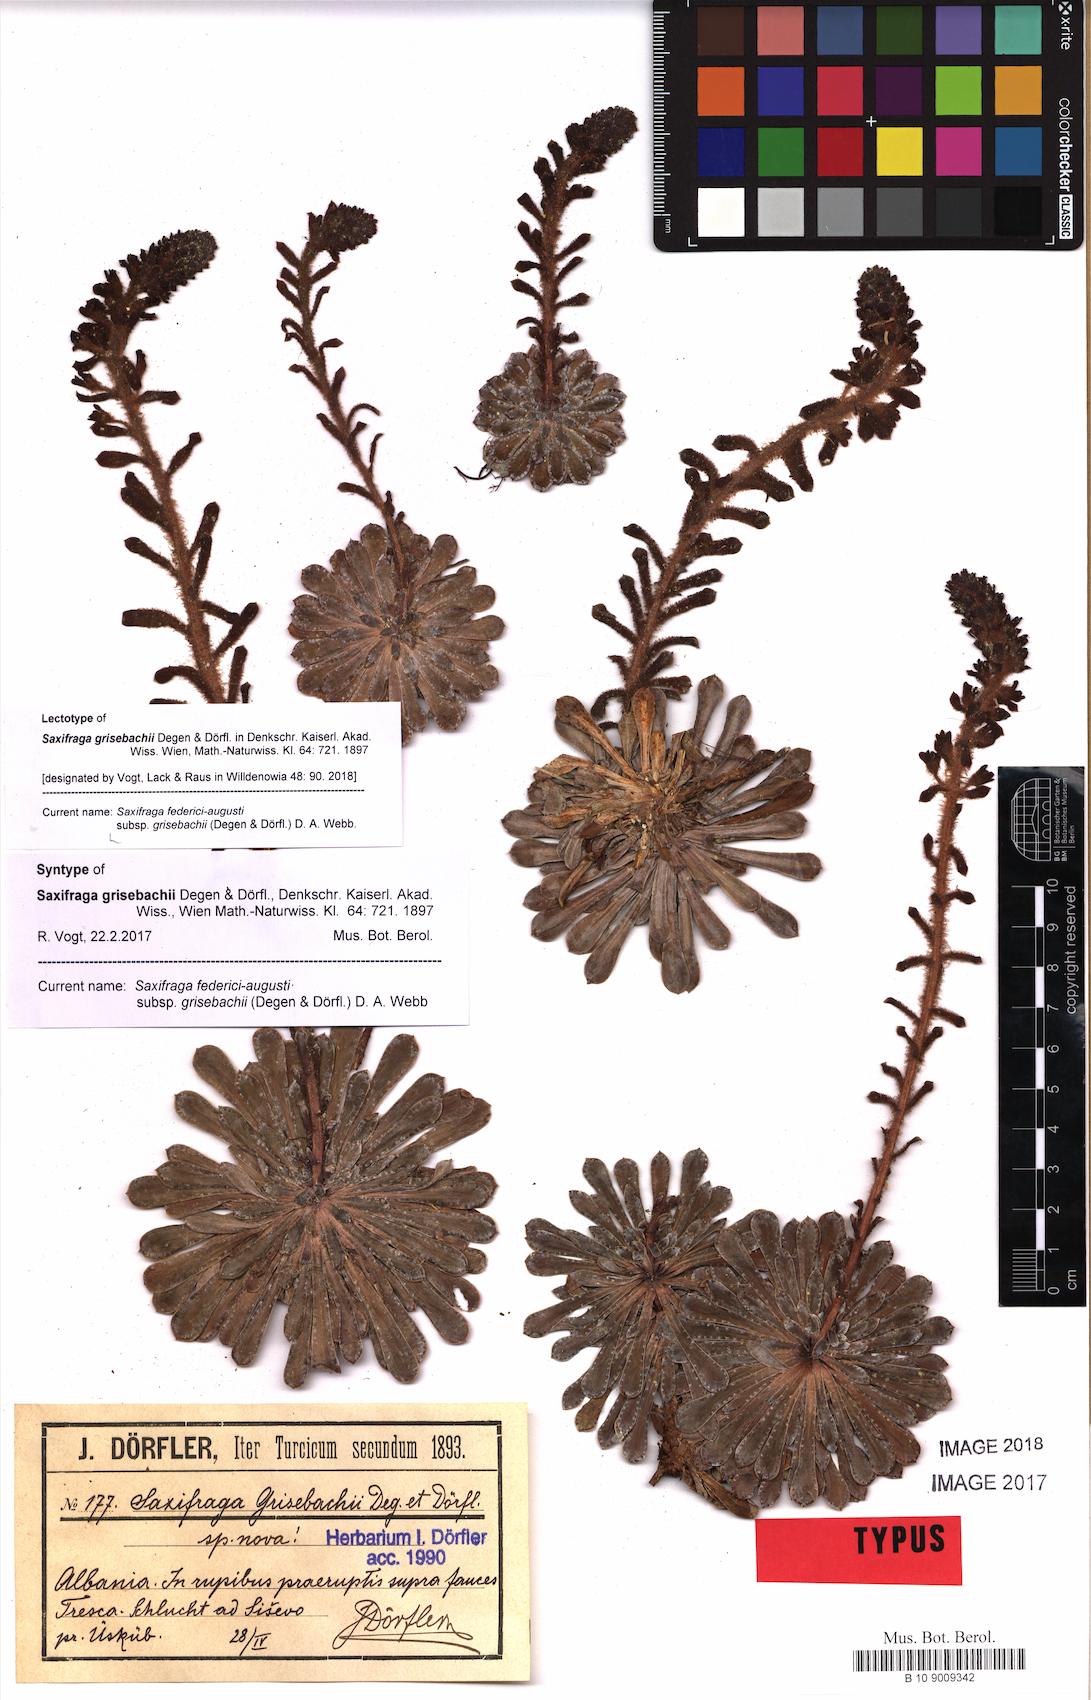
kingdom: Plantae
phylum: Tracheophyta
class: Magnoliopsida
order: Saxifragales
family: Saxifragaceae
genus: Saxifraga
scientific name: Saxifraga federici-augusti
